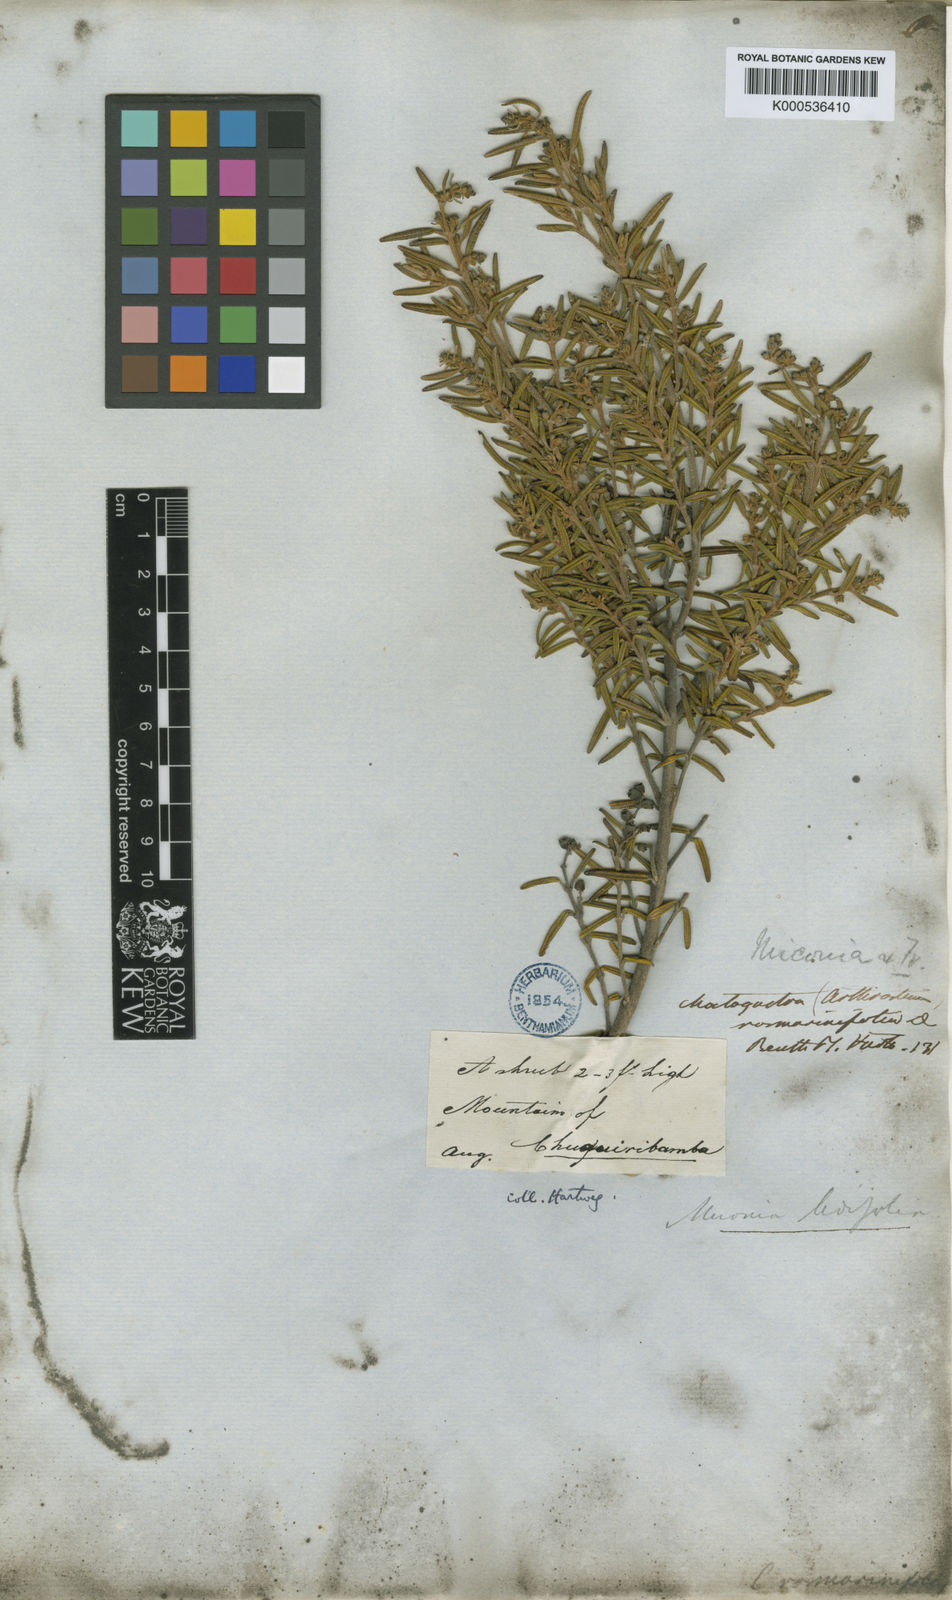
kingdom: Plantae
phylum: Tracheophyta
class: Magnoliopsida
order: Myrtales
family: Melastomataceae
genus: Miconia
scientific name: Miconia ledifolia
